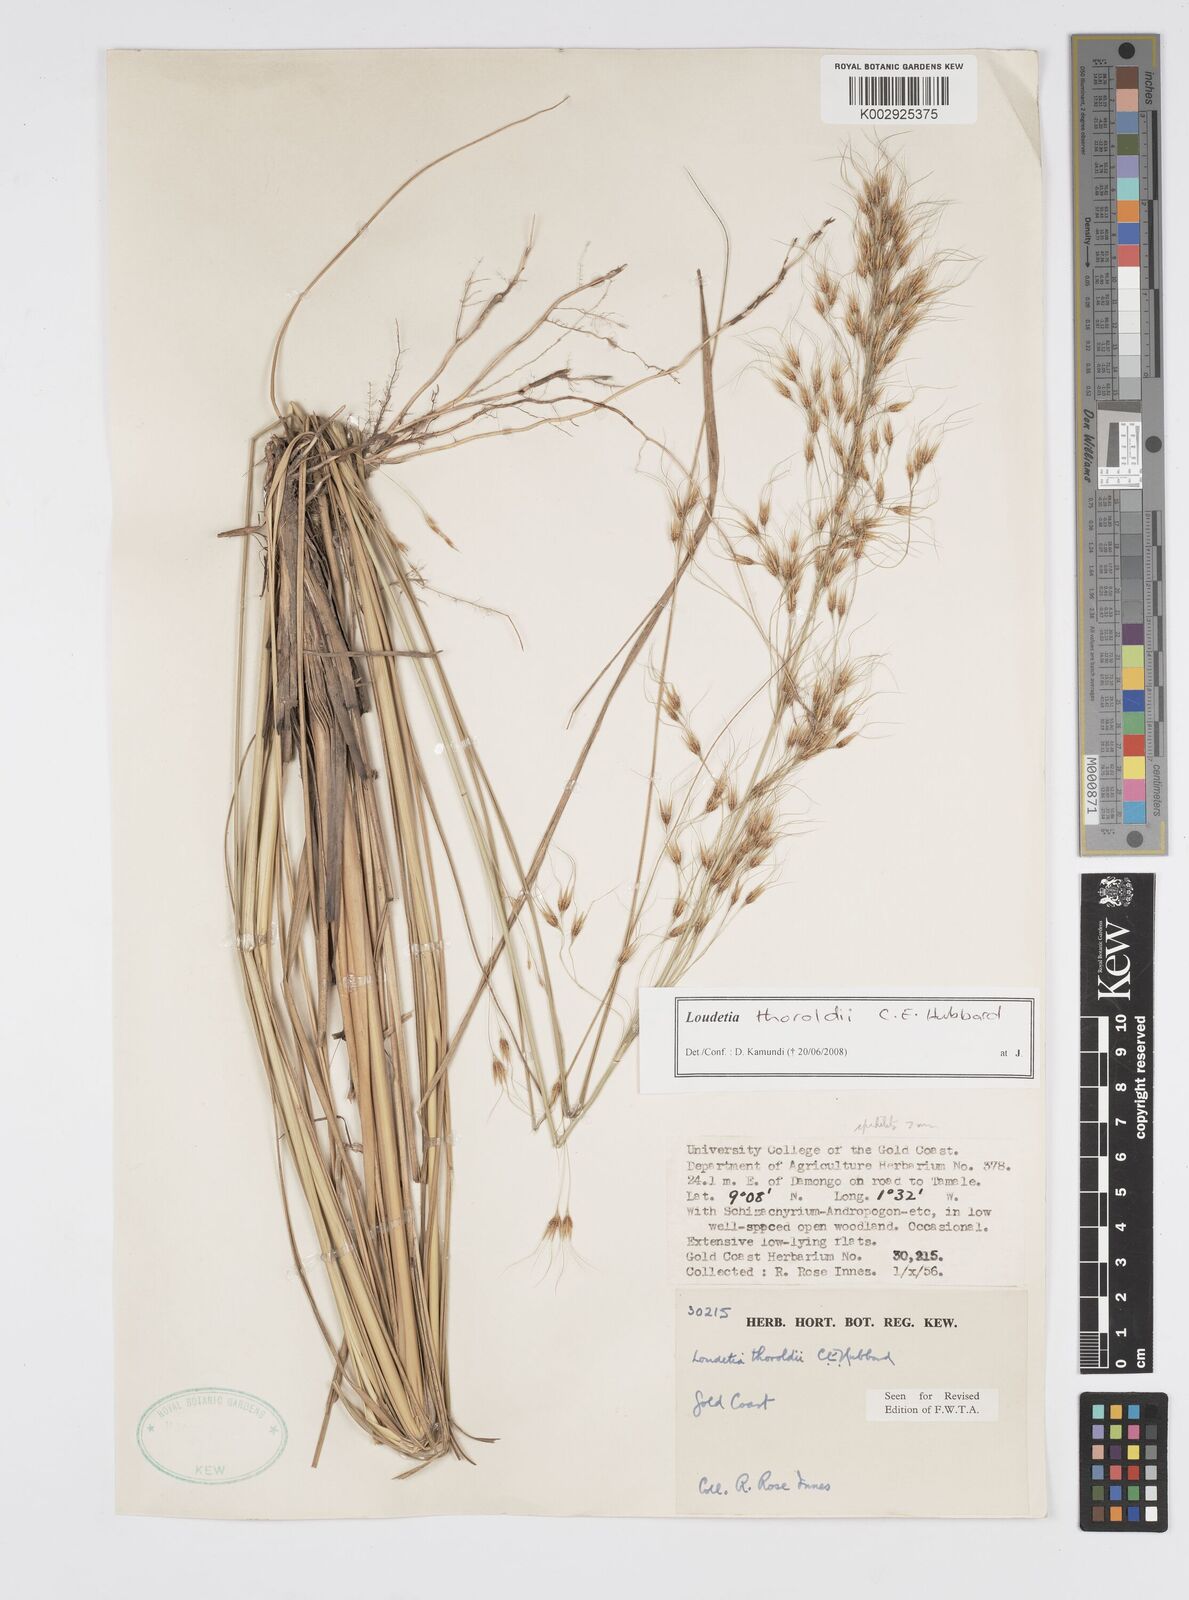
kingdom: Plantae
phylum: Tracheophyta
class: Liliopsida
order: Poales
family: Poaceae
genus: Loudetiopsis
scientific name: Loudetiopsis thoroldii
